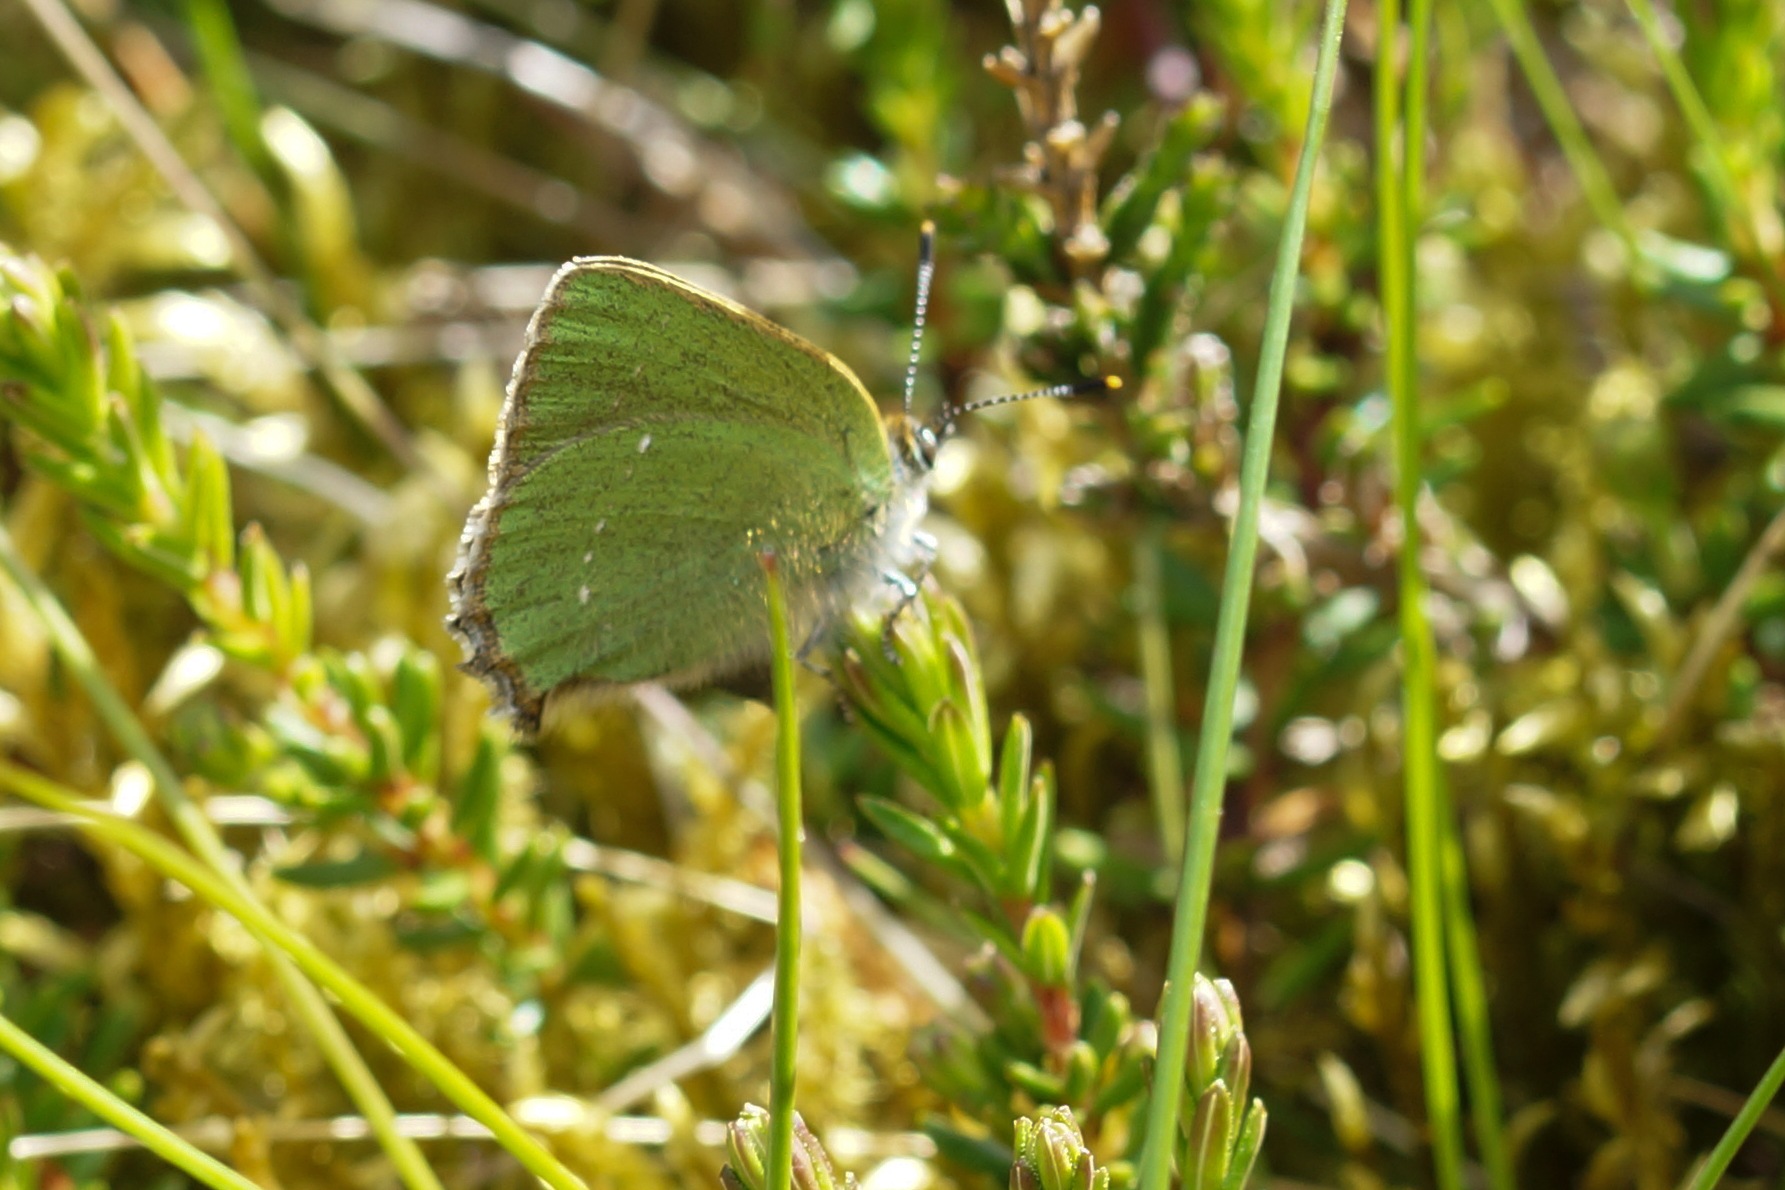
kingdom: Animalia
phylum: Arthropoda
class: Insecta
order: Lepidoptera
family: Lycaenidae
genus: Callophrys
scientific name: Callophrys rubi
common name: Grøn busksommerfugl
